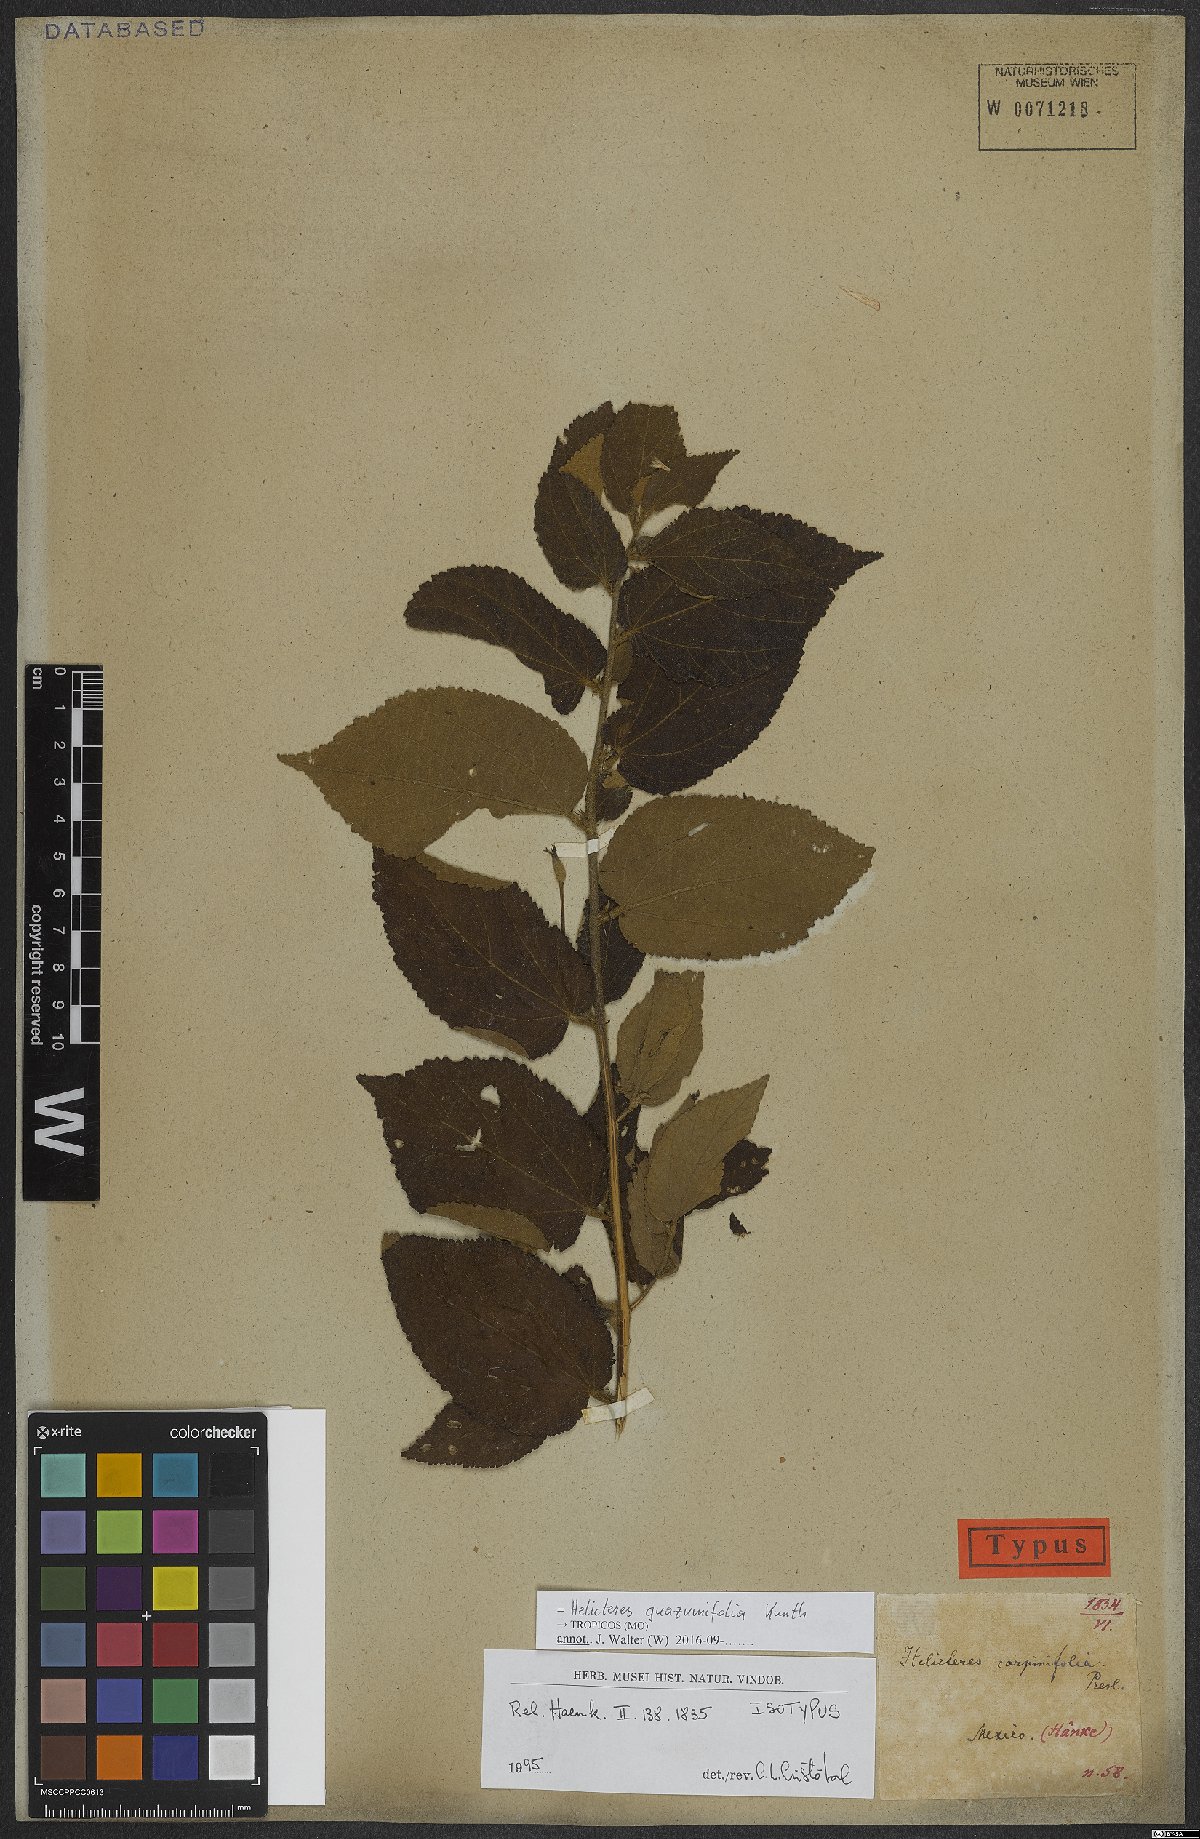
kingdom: Plantae
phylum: Tracheophyta
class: Magnoliopsida
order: Malvales
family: Malvaceae
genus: Helicteres
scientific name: Helicteres guazumifolia
